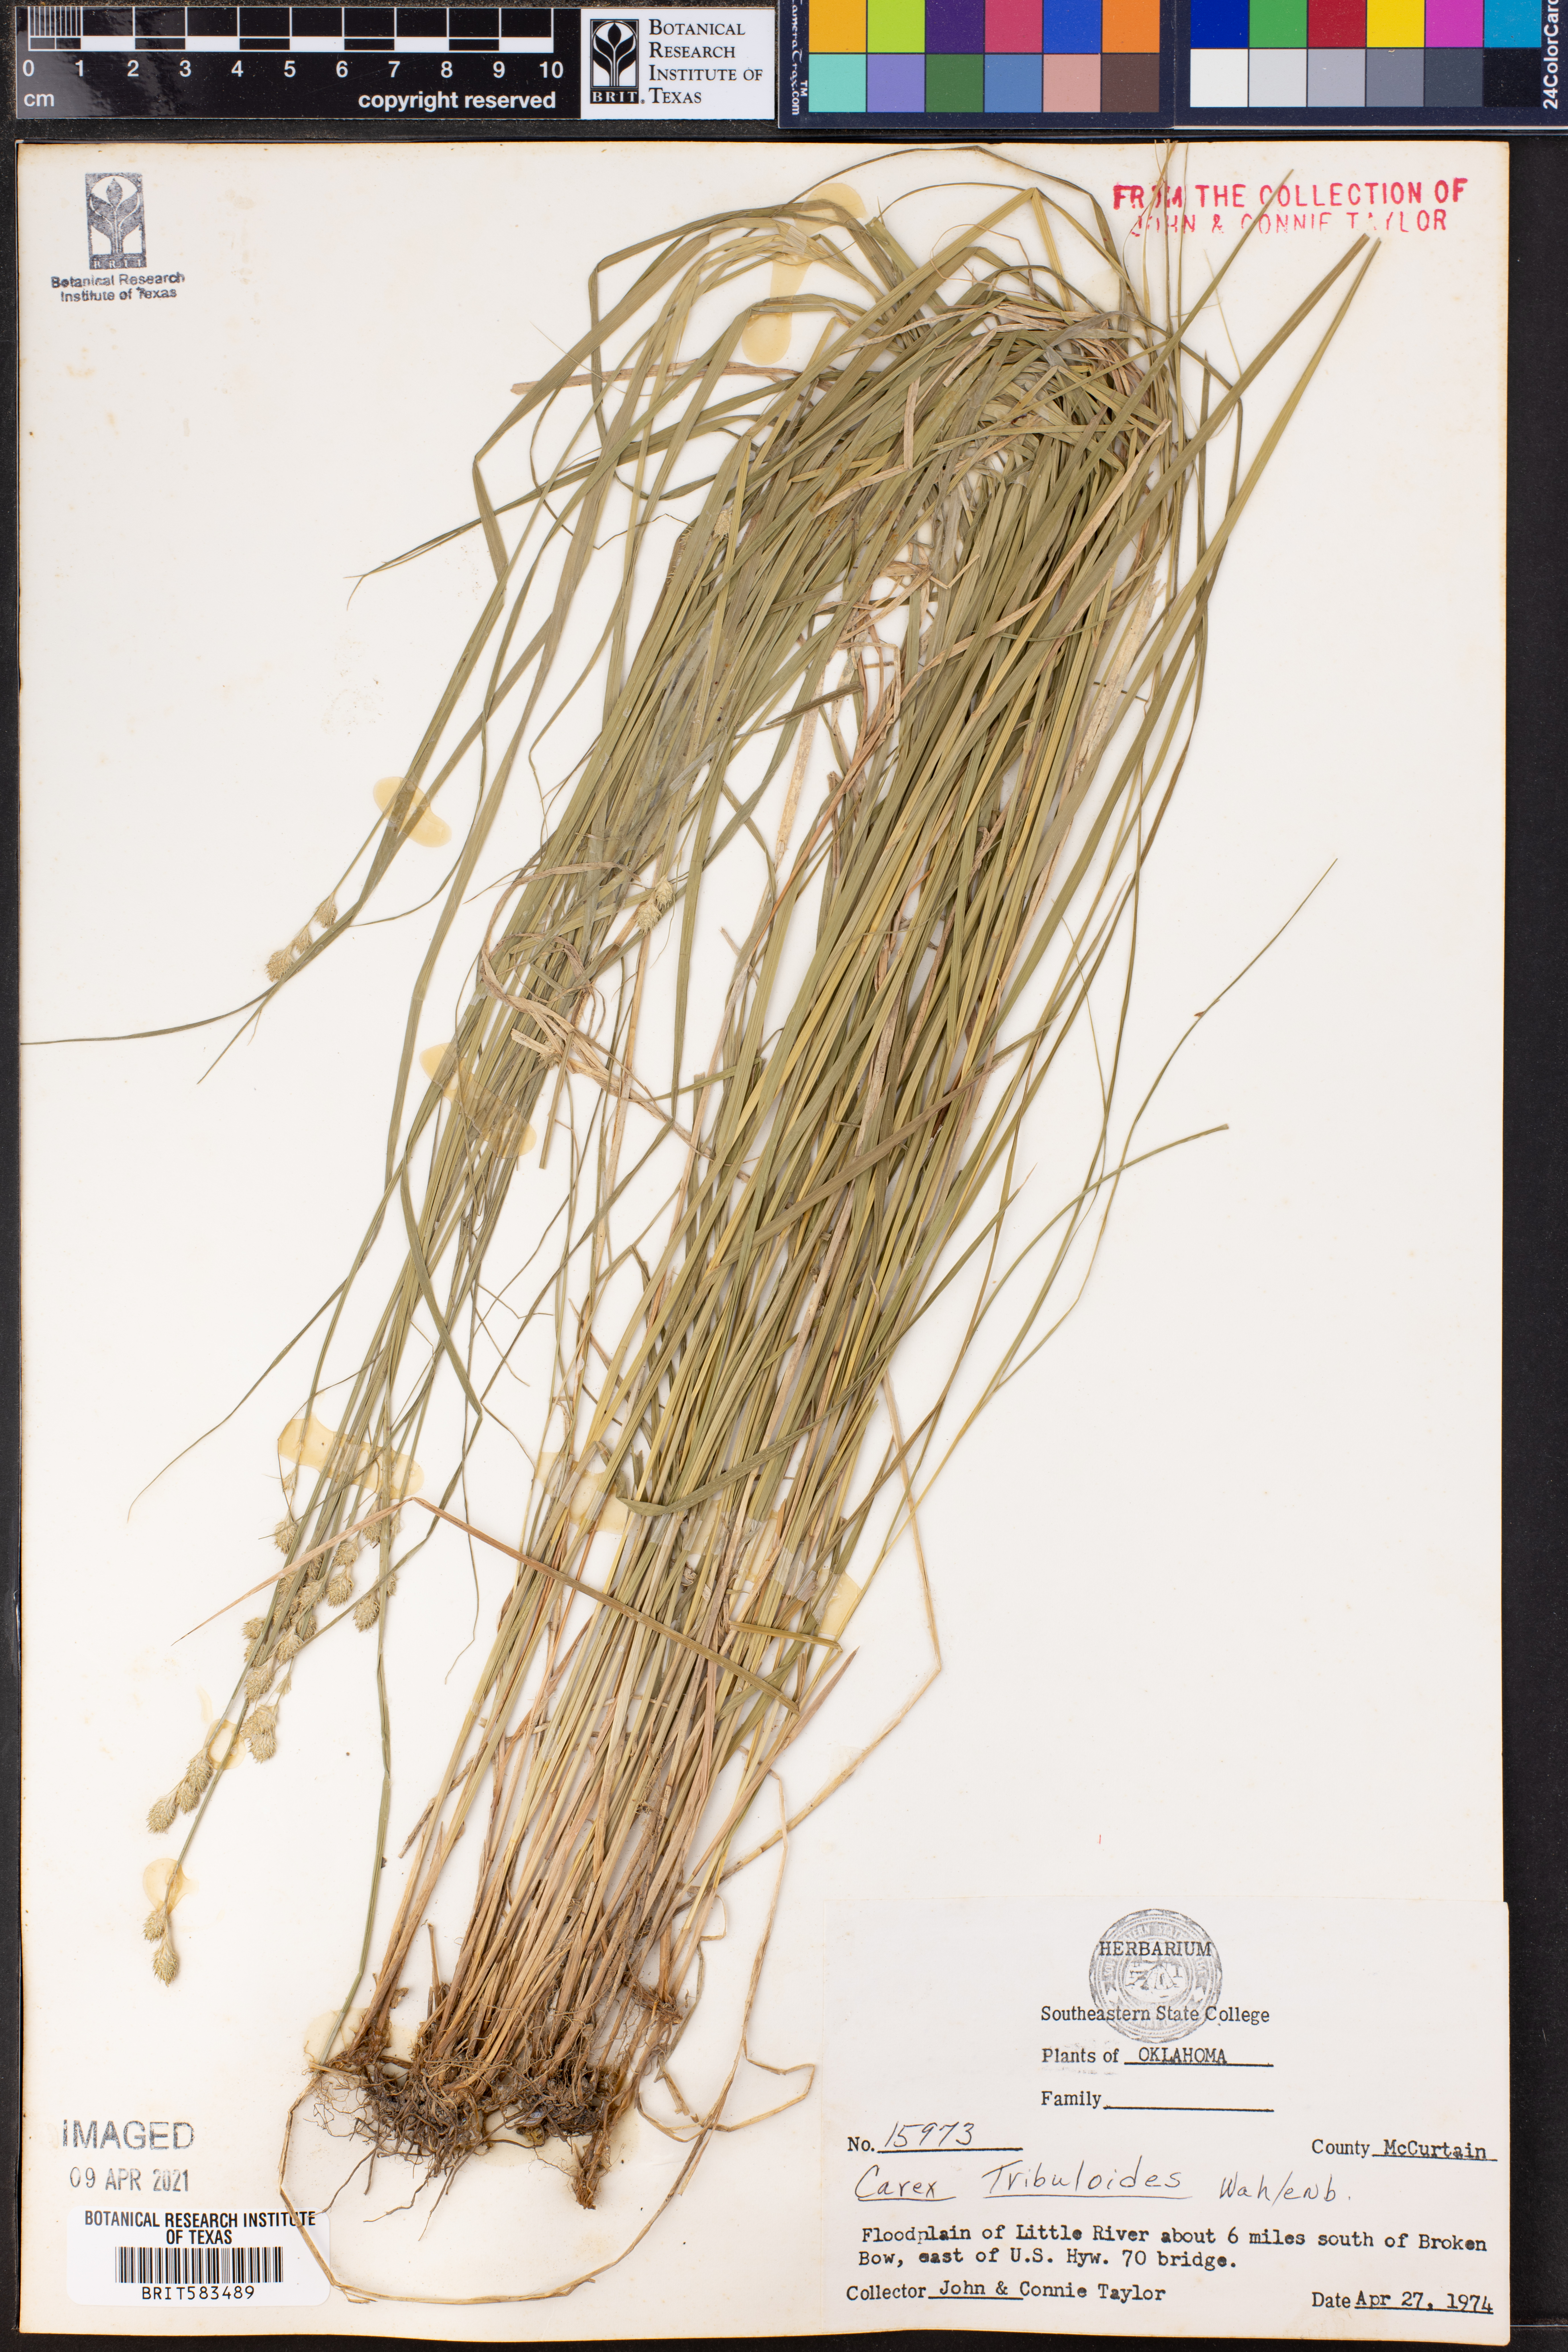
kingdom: Plantae
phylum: Tracheophyta
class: Liliopsida
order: Poales
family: Cyperaceae
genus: Carex
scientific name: Carex tribuloides
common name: Blunt broom sedge
